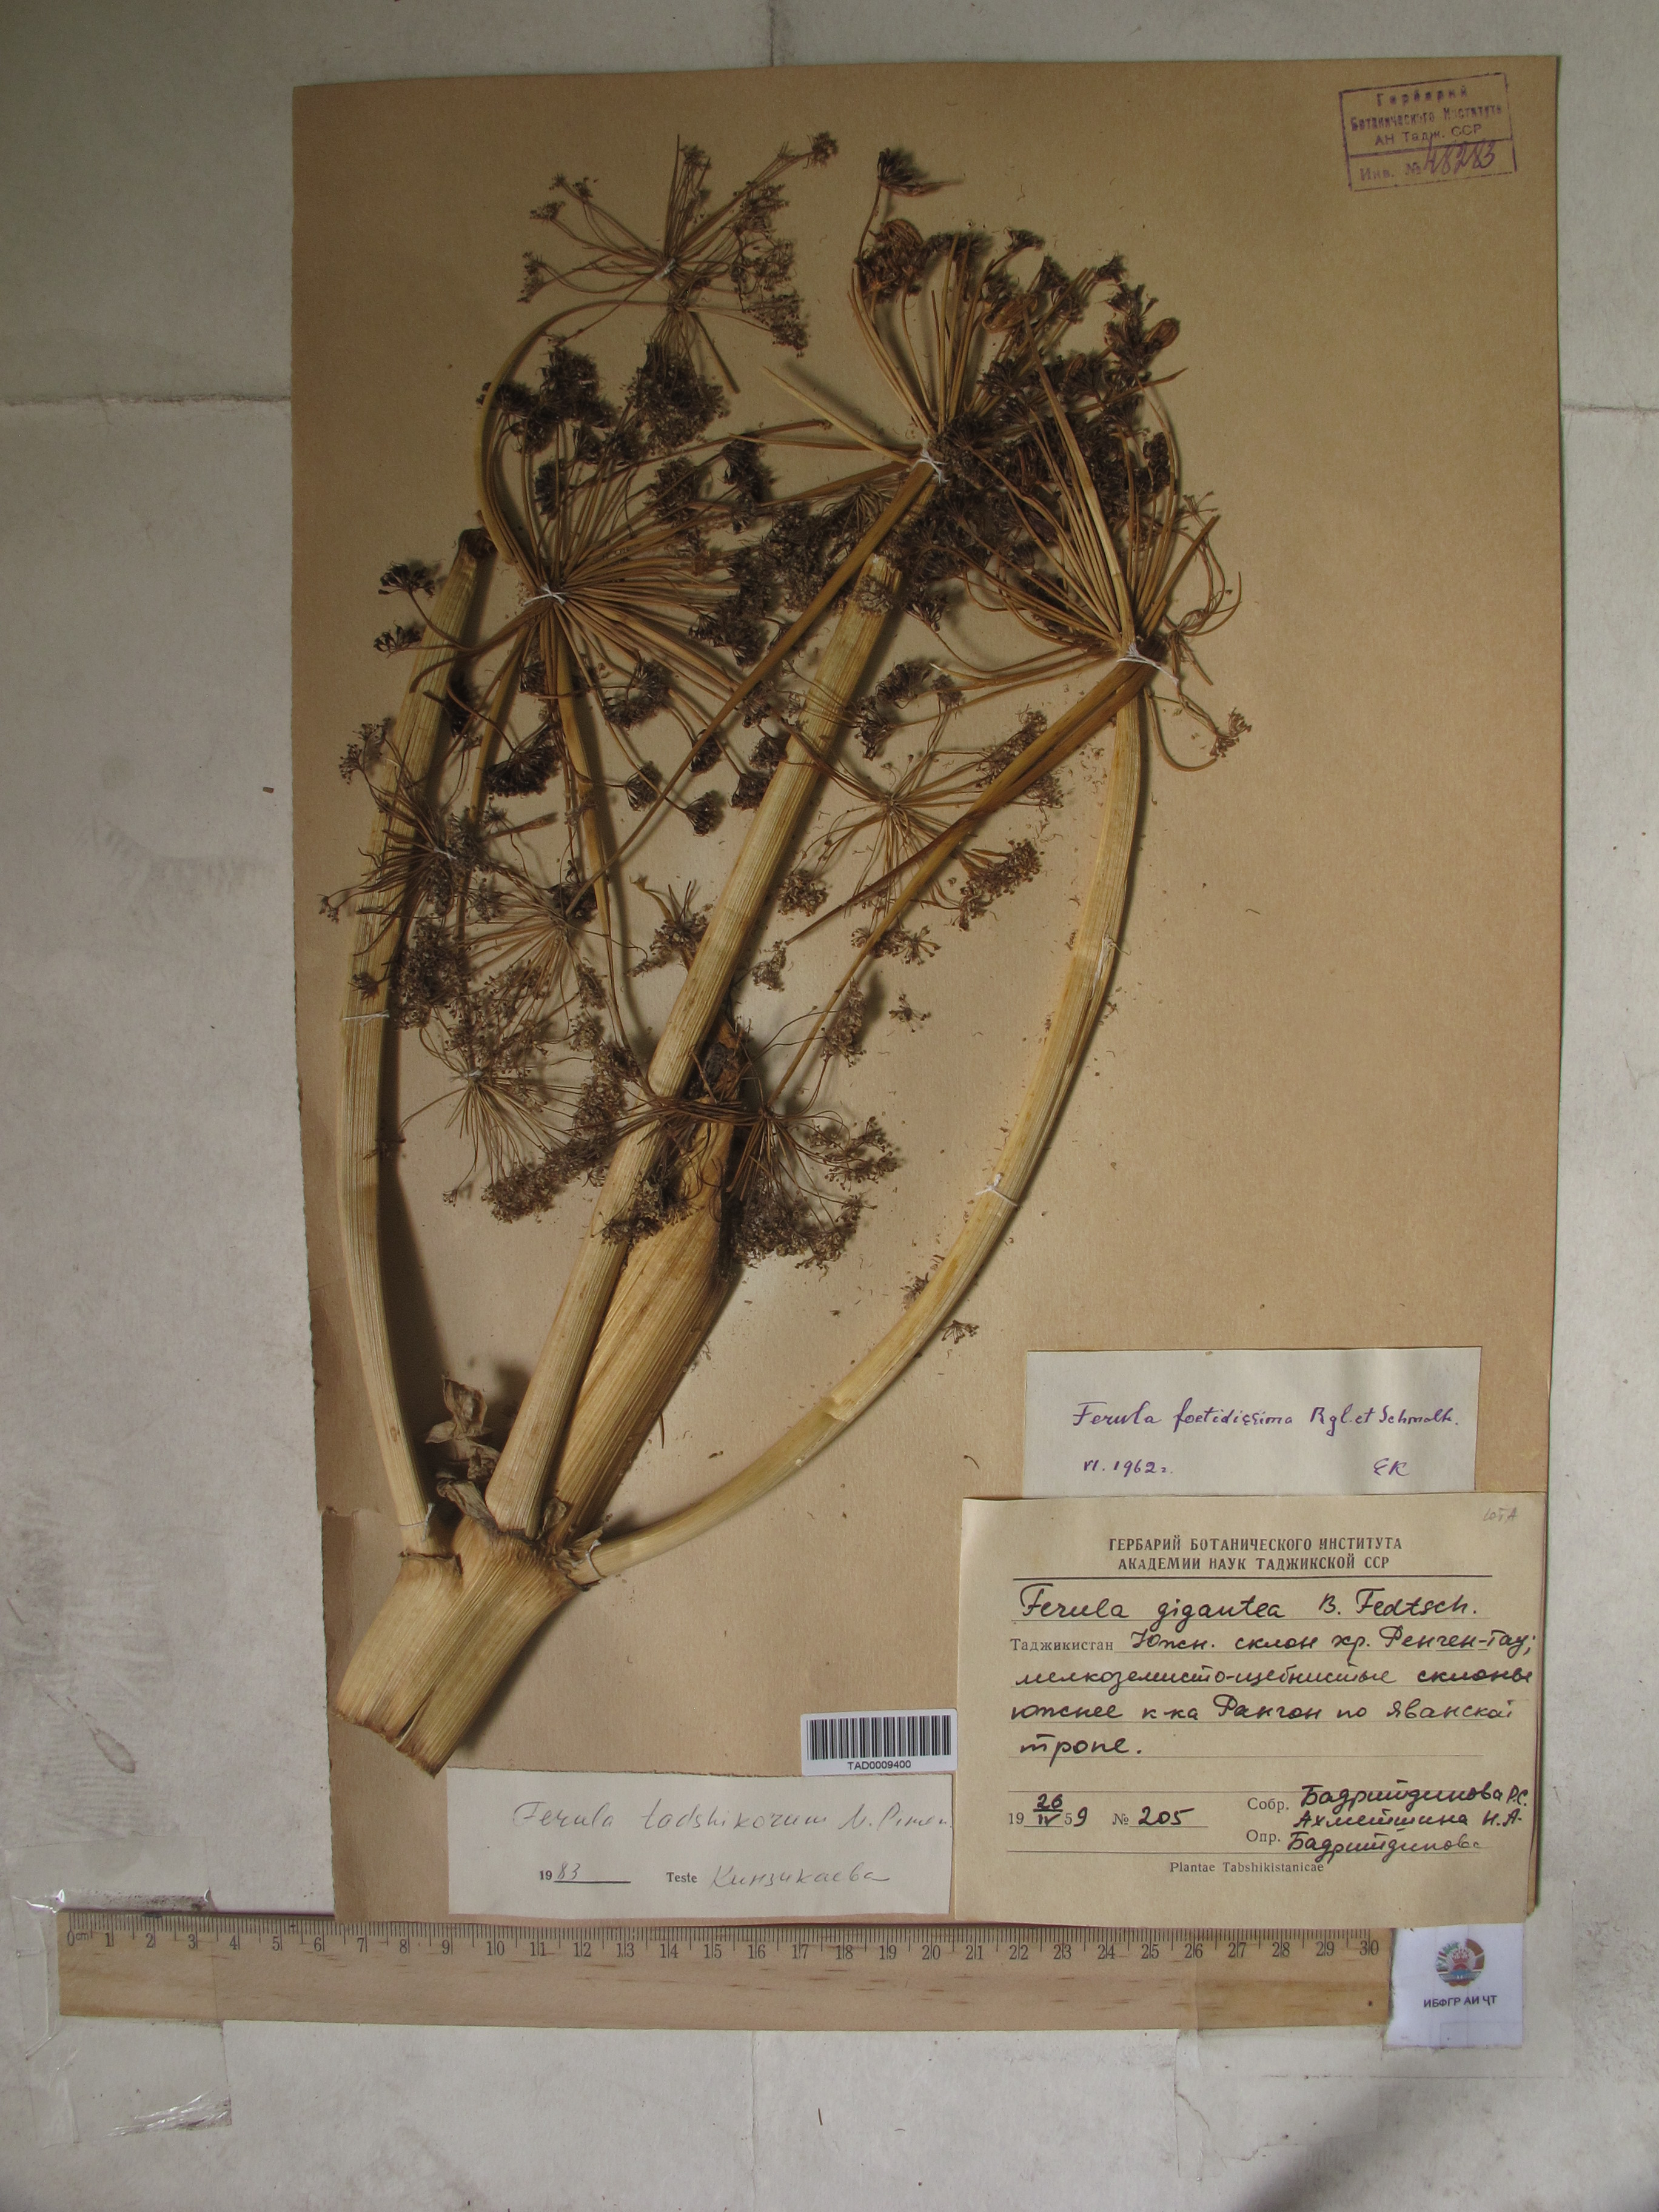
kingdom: Plantae
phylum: Tracheophyta
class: Magnoliopsida
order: Apiales
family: Apiaceae
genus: Ferula
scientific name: Ferula gigantea
